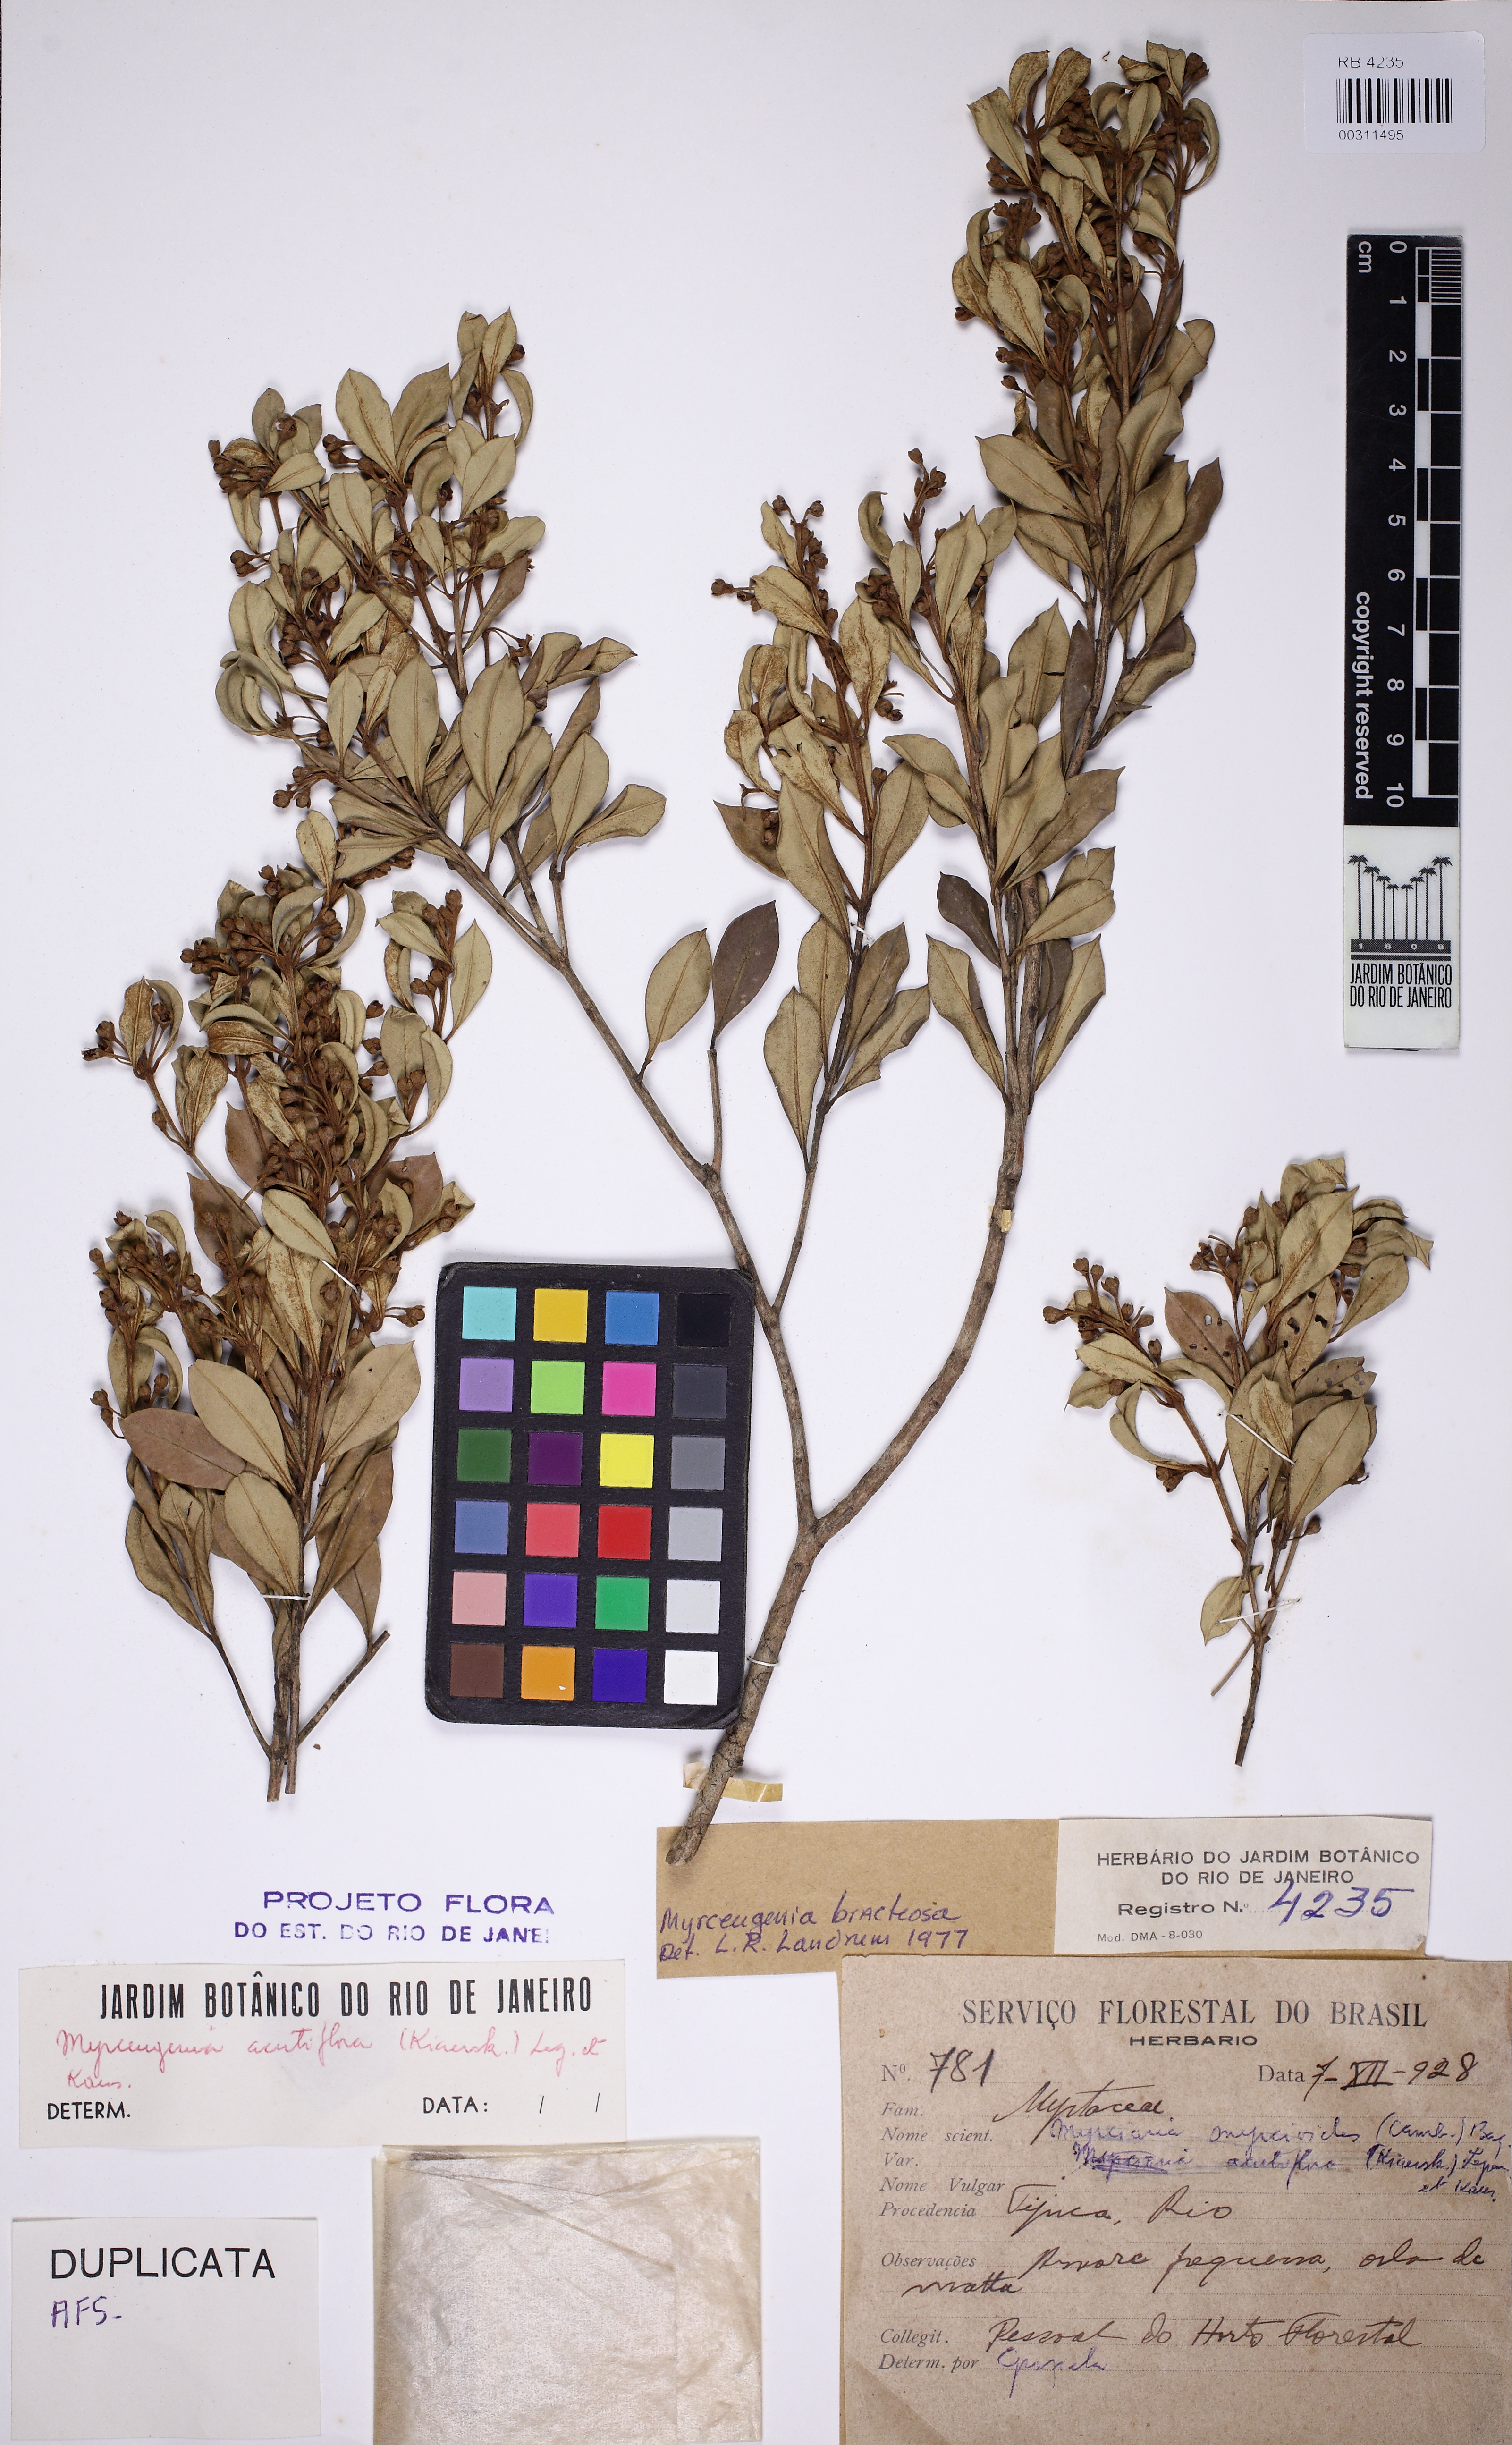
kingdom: Plantae
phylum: Tracheophyta
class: Magnoliopsida
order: Myrtales
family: Myrtaceae
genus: Eugenia
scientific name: Eugenia biflora
